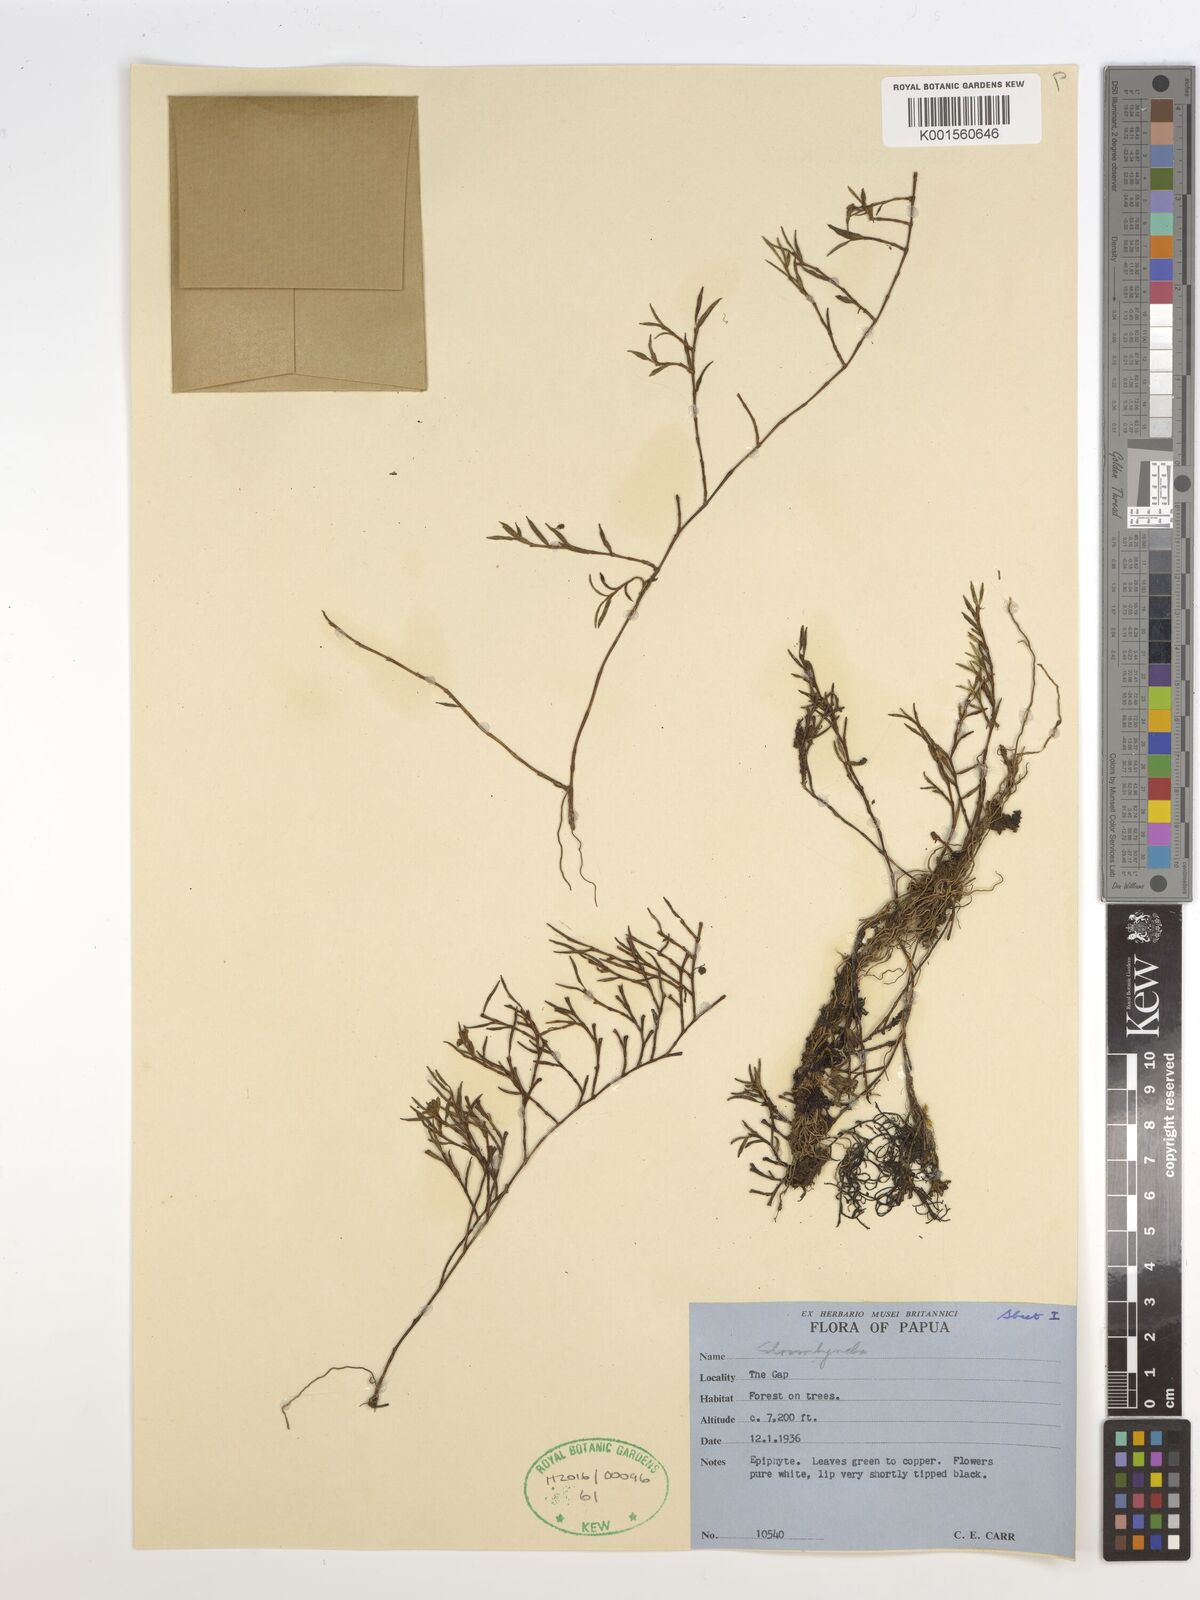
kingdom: Plantae
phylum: Tracheophyta
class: Liliopsida
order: Asparagales
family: Orchidaceae
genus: Glomera
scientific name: Glomera
